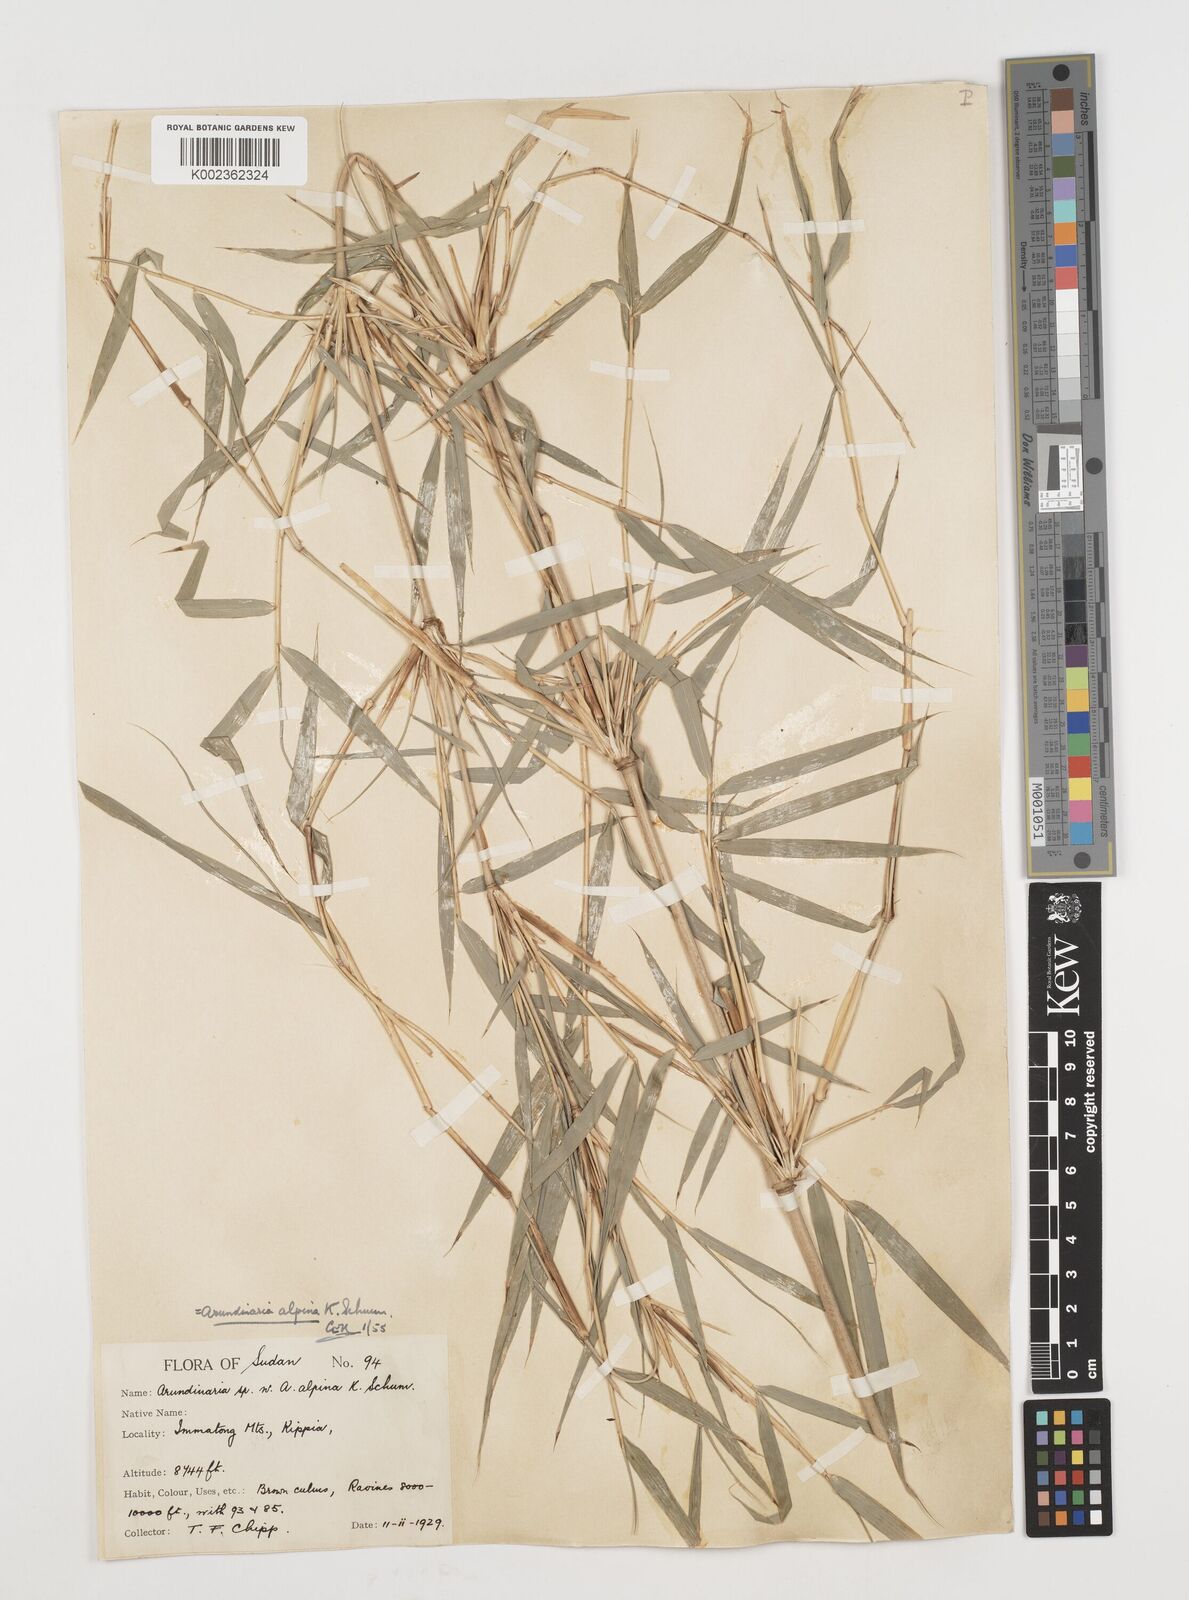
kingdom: Plantae
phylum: Tracheophyta
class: Liliopsida
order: Poales
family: Poaceae
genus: Oldeania
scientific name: Oldeania alpina
